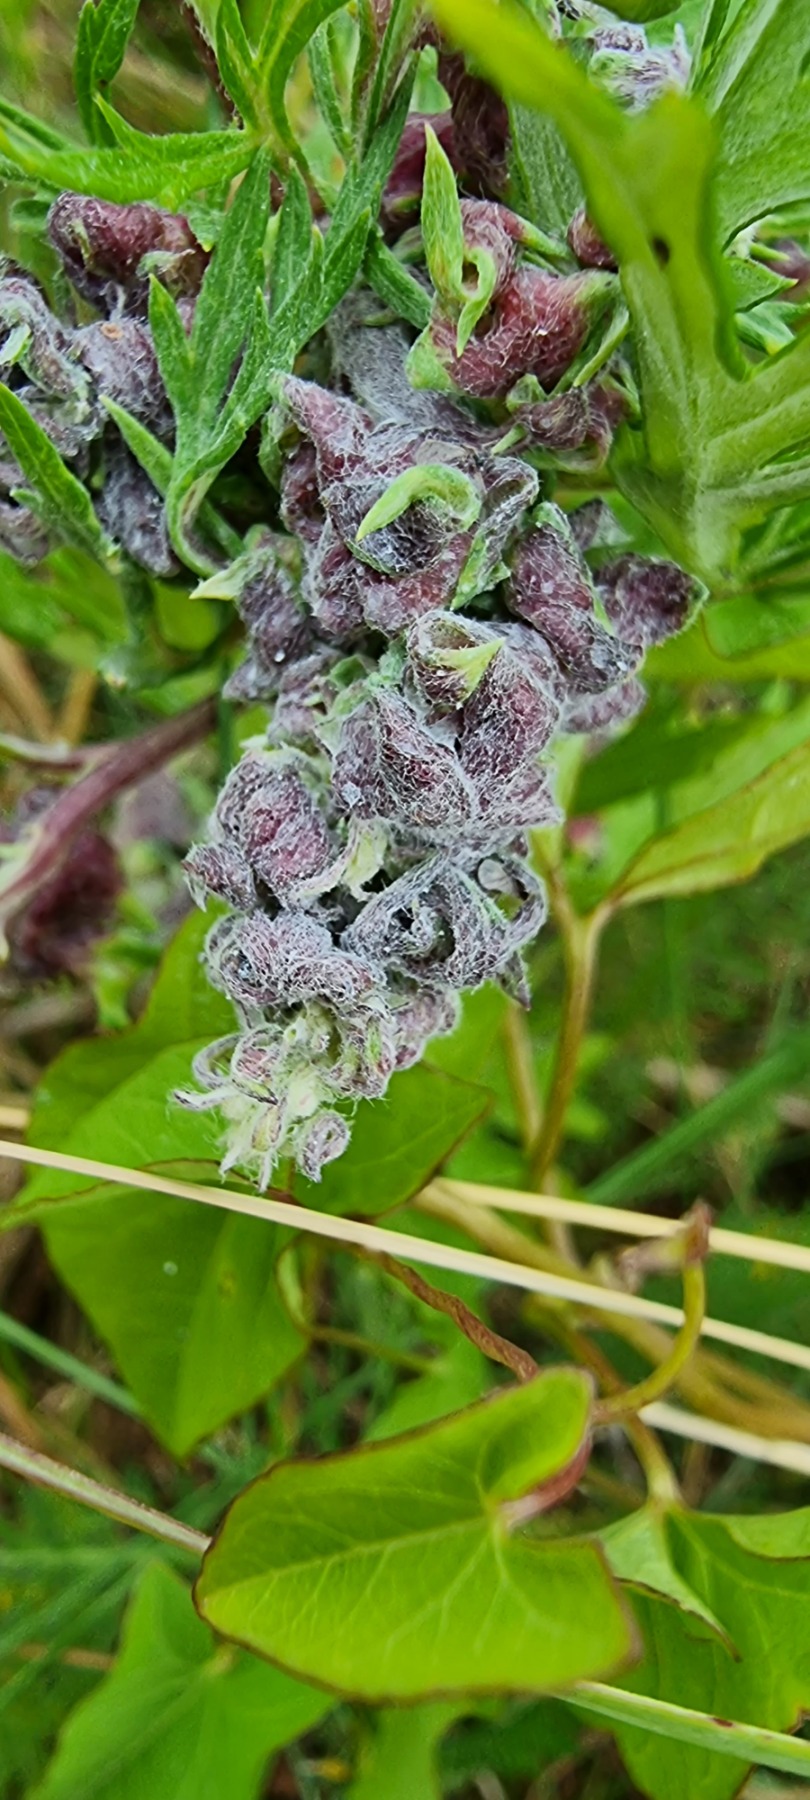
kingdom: Animalia
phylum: Arthropoda
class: Insecta
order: Hemiptera
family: Aphididae
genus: Cryptosiphum
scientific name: Cryptosiphum artemisiae
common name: Bynkegallelus
